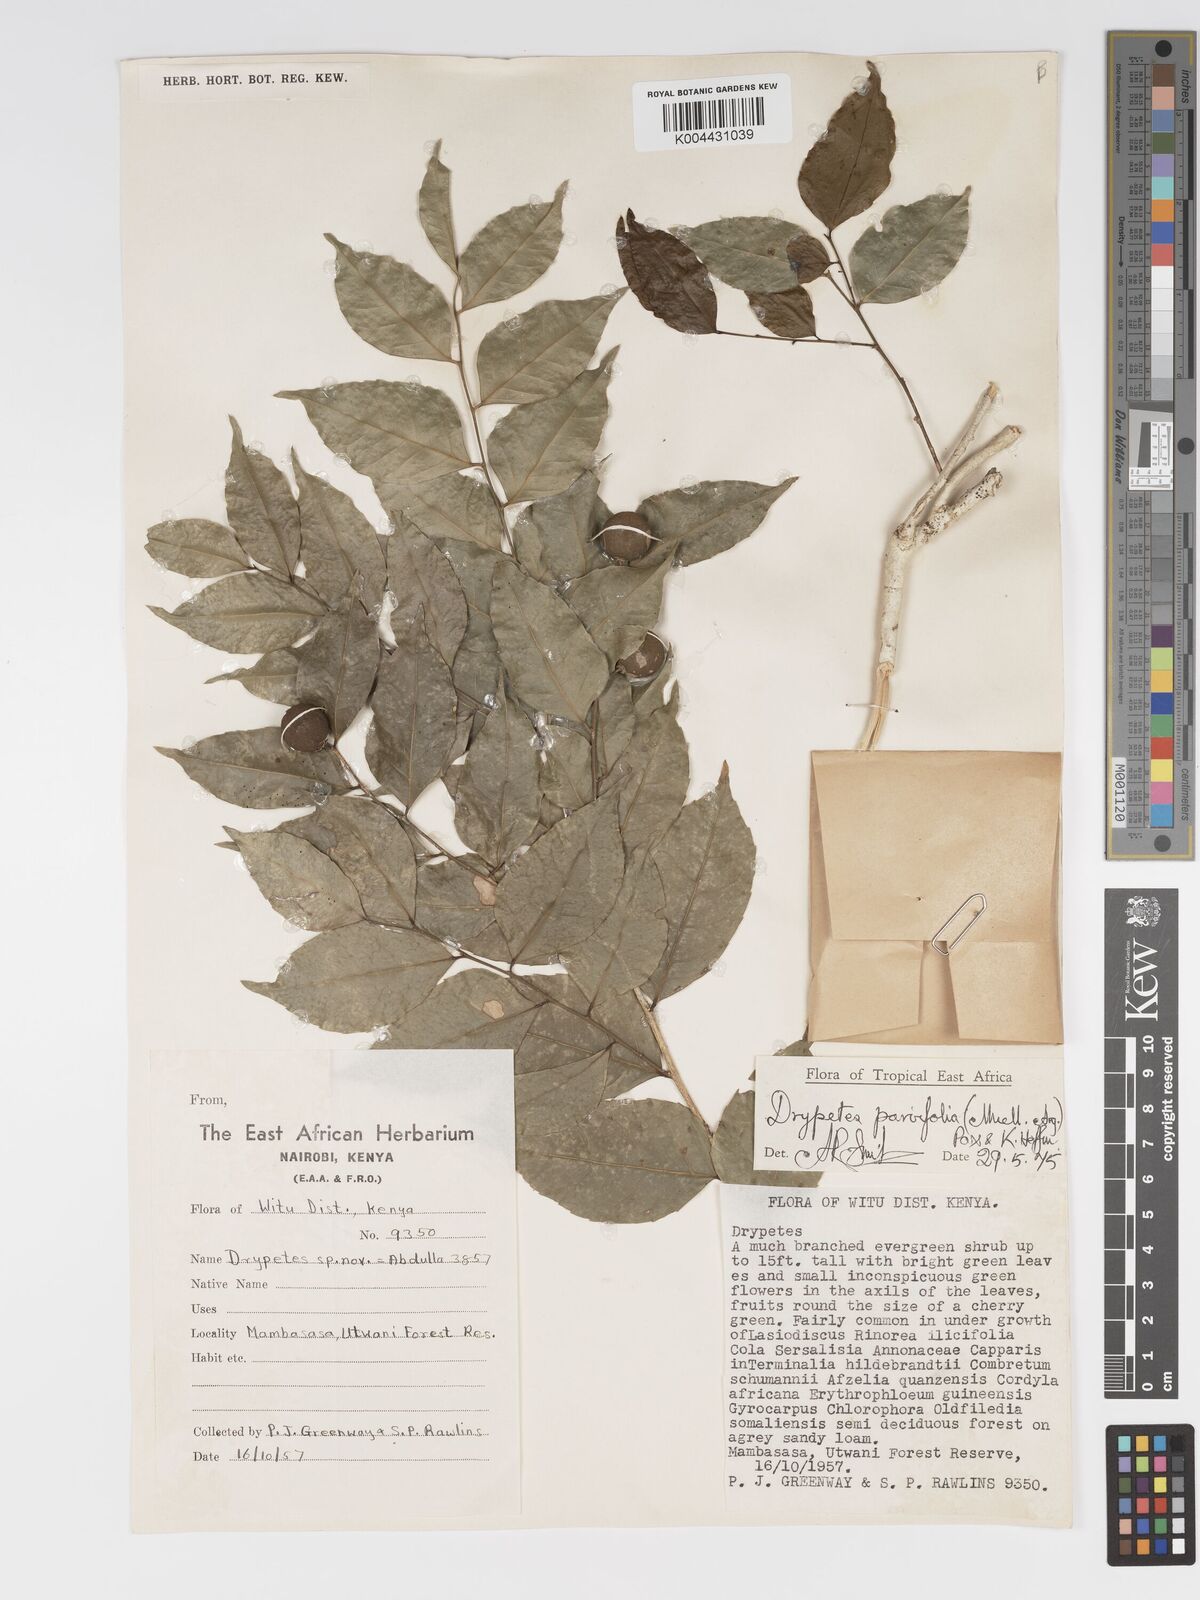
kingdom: Plantae
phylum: Tracheophyta
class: Magnoliopsida
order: Malpighiales
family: Putranjivaceae
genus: Drypetes
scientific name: Drypetes parvifolia
